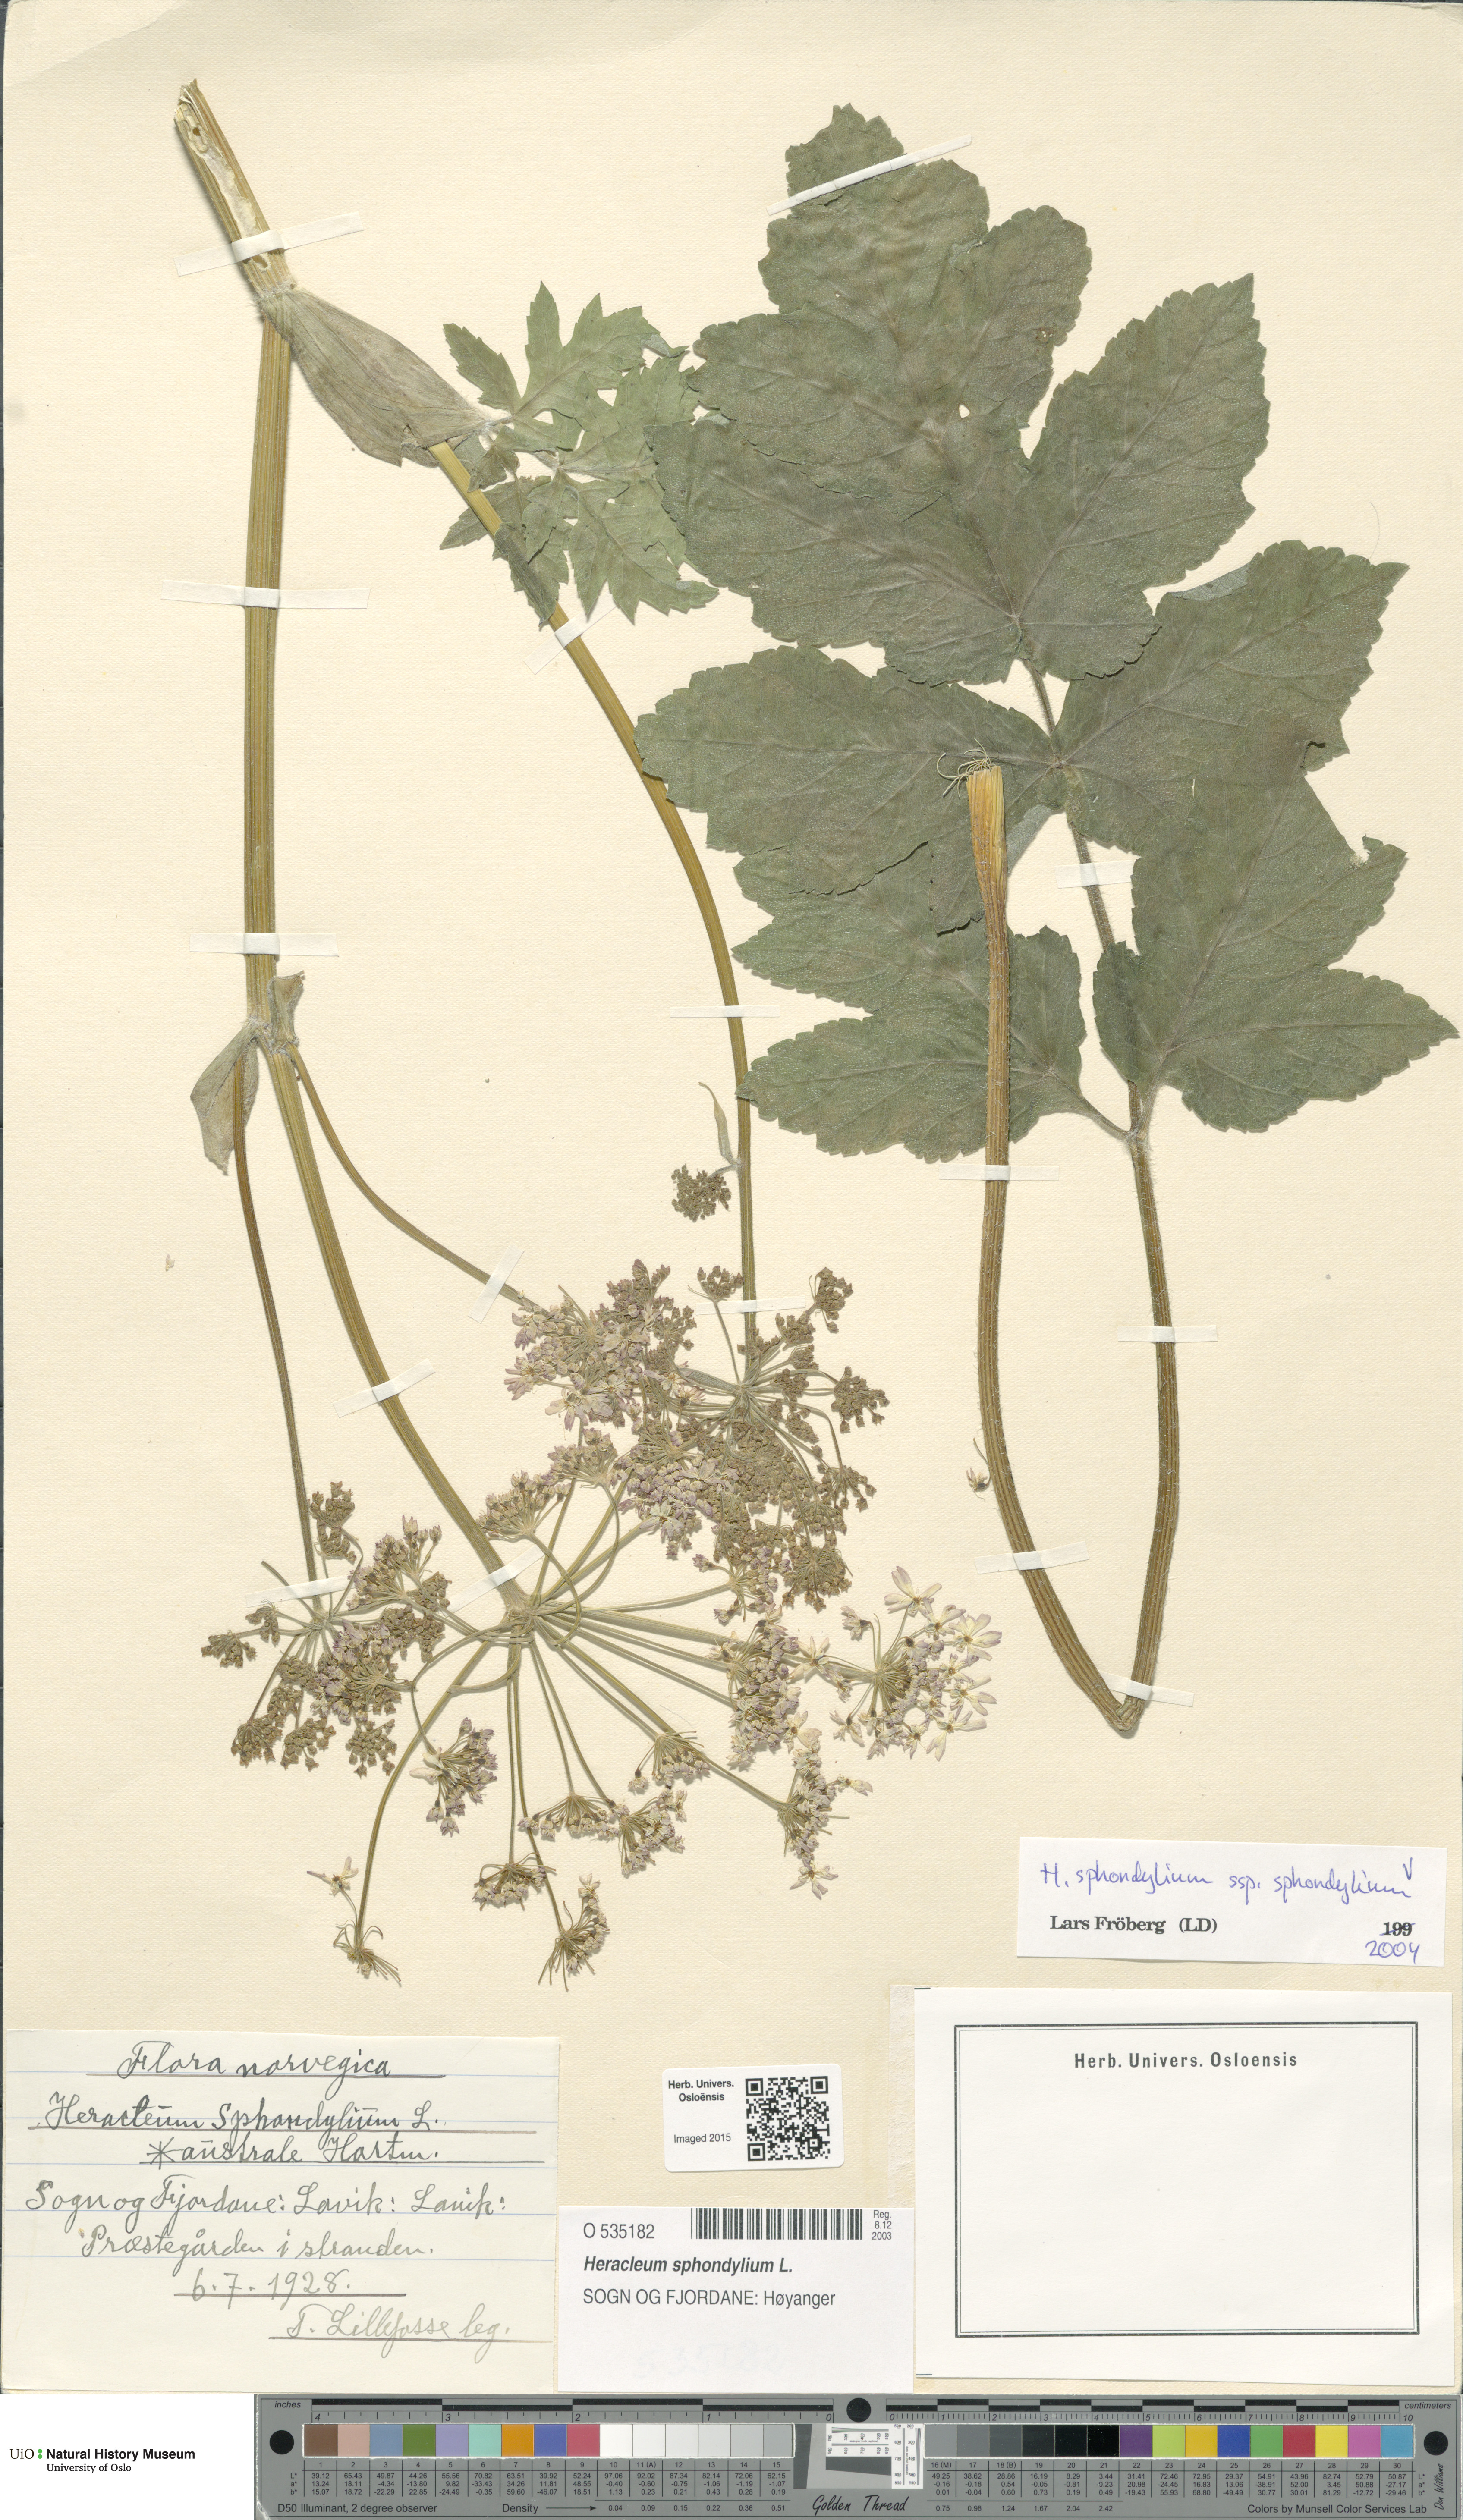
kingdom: Plantae
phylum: Tracheophyta
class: Magnoliopsida
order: Apiales
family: Apiaceae
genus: Heracleum
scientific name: Heracleum sphondylium
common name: Hogweed
